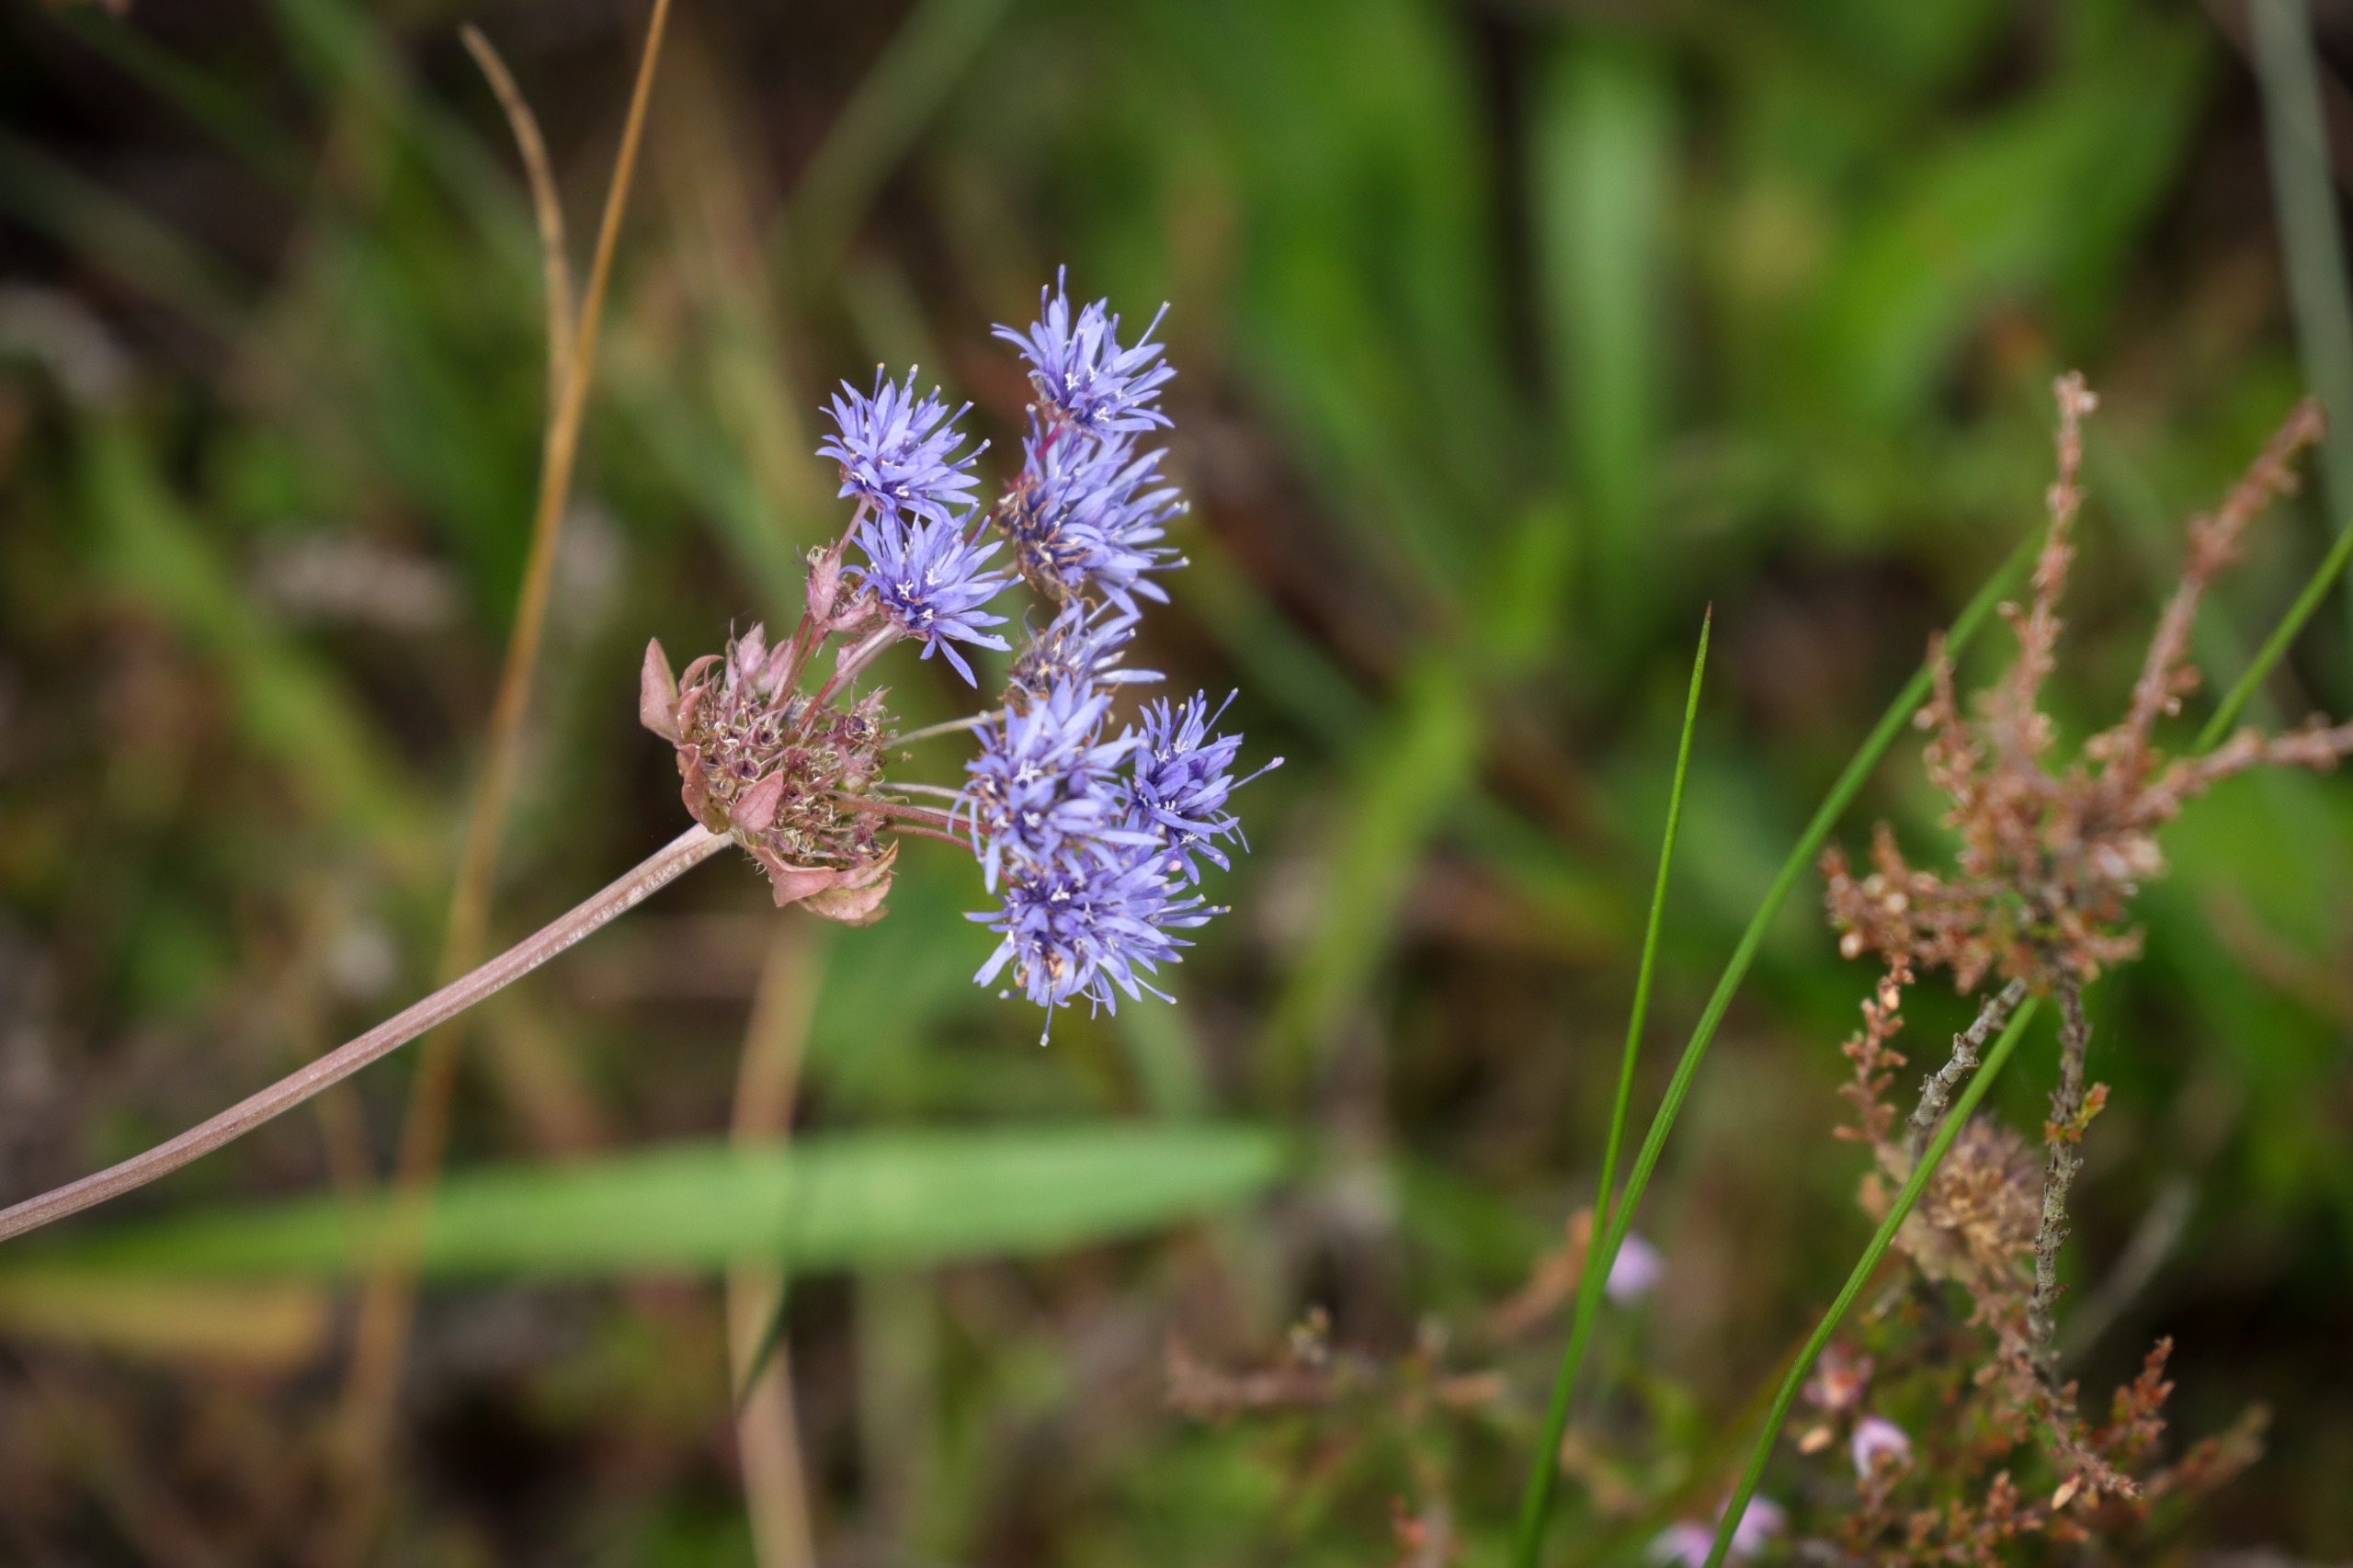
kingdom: Plantae
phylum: Tracheophyta
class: Magnoliopsida
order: Asterales
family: Campanulaceae
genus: Jasione
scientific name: Jasione montana
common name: Blåmunke
